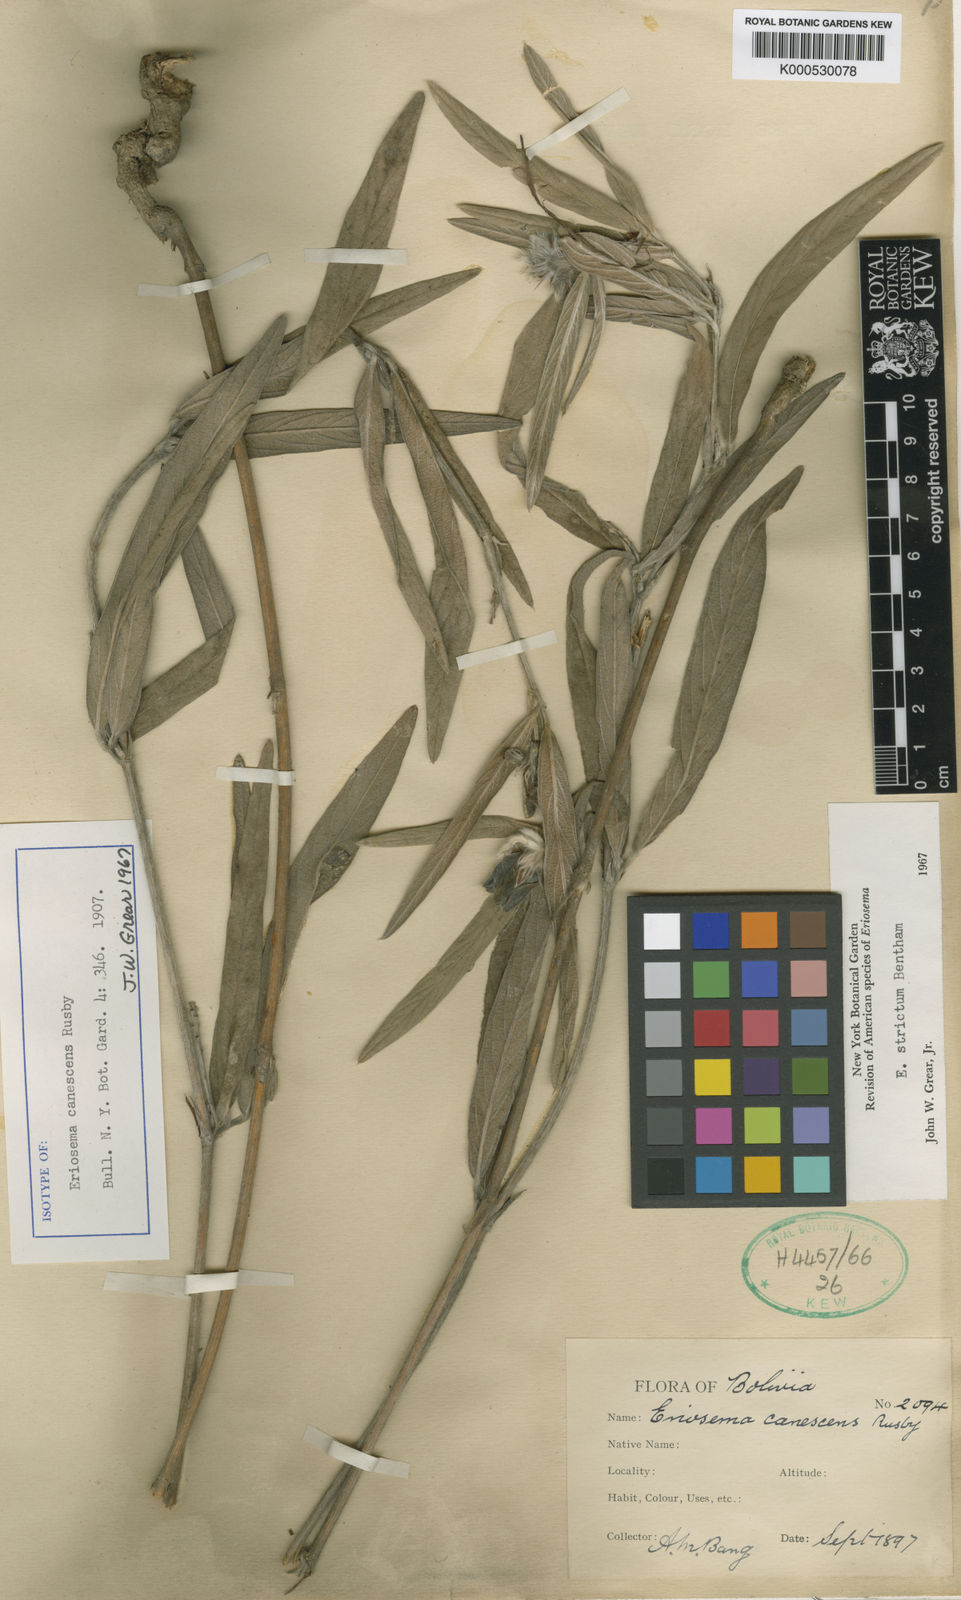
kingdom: Plantae
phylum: Tracheophyta
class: Magnoliopsida
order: Fabales
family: Fabaceae
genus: Eriosema
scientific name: Eriosema strictum
